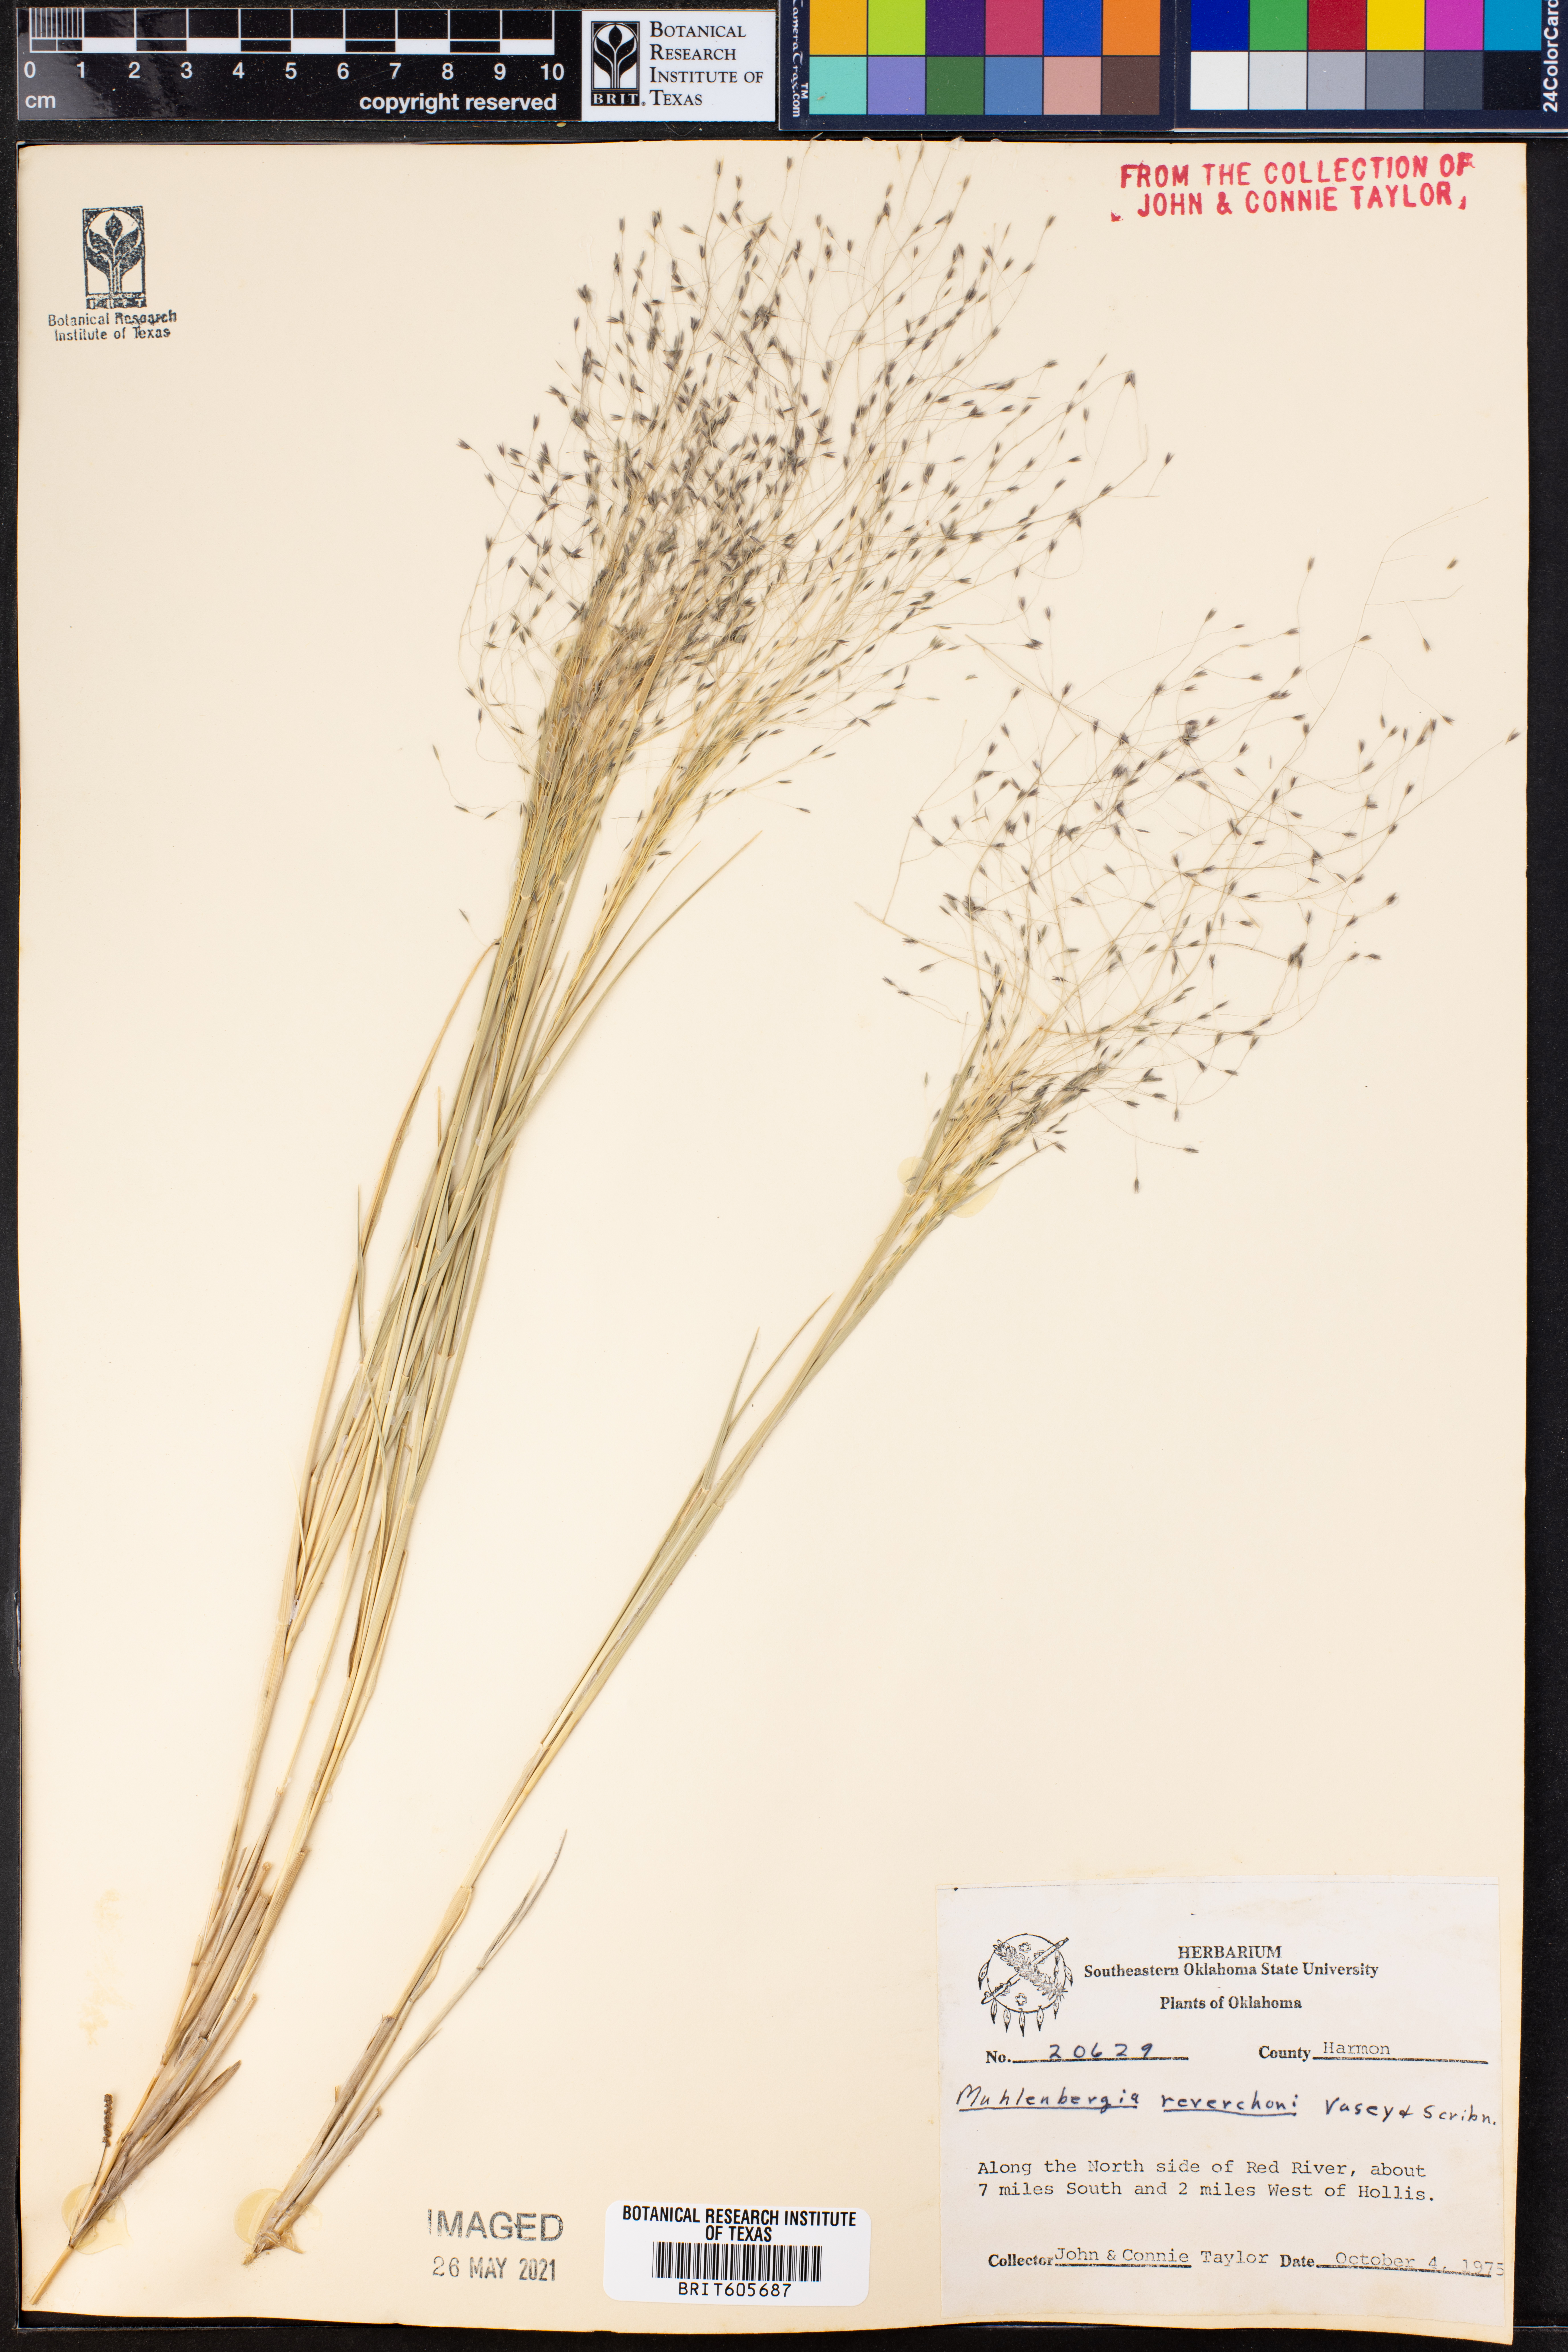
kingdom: Plantae
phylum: Tracheophyta
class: Liliopsida
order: Poales
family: Poaceae
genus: Muhlenbergia
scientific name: Muhlenbergia reverchonii
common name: Seep muhly
